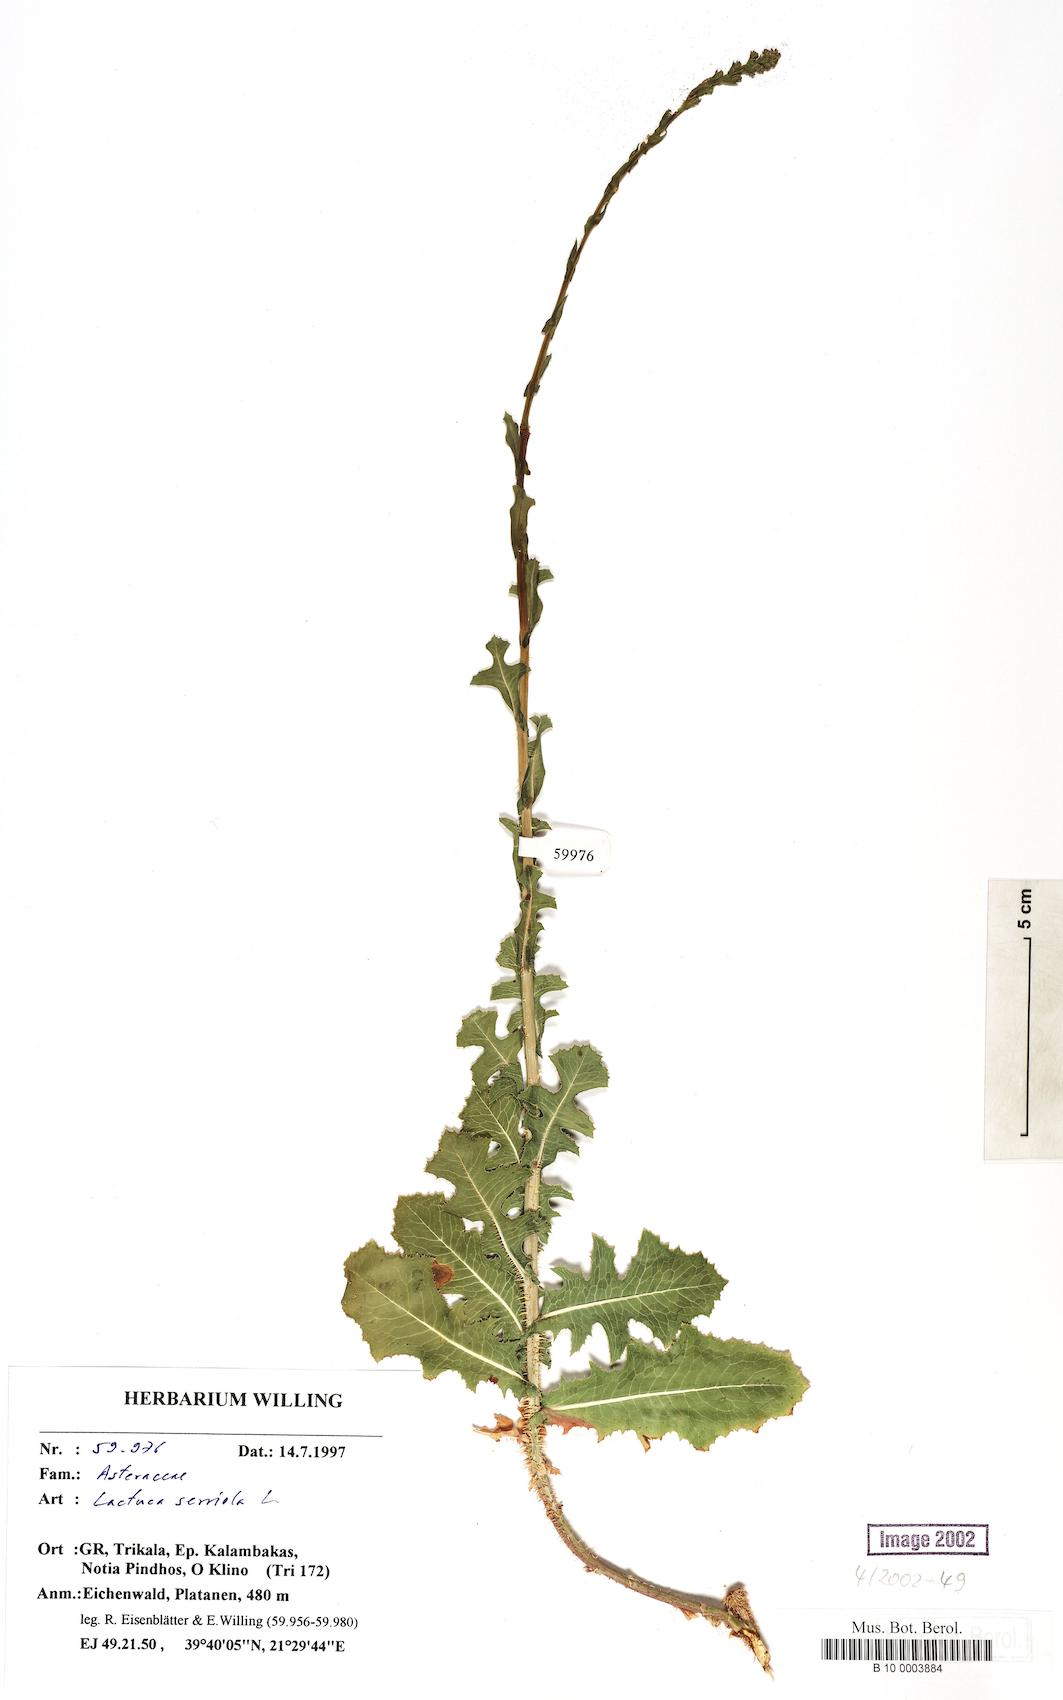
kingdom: Plantae
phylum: Tracheophyta
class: Magnoliopsida
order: Asterales
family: Asteraceae
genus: Lactuca
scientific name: Lactuca serriola
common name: Prickly lettuce
